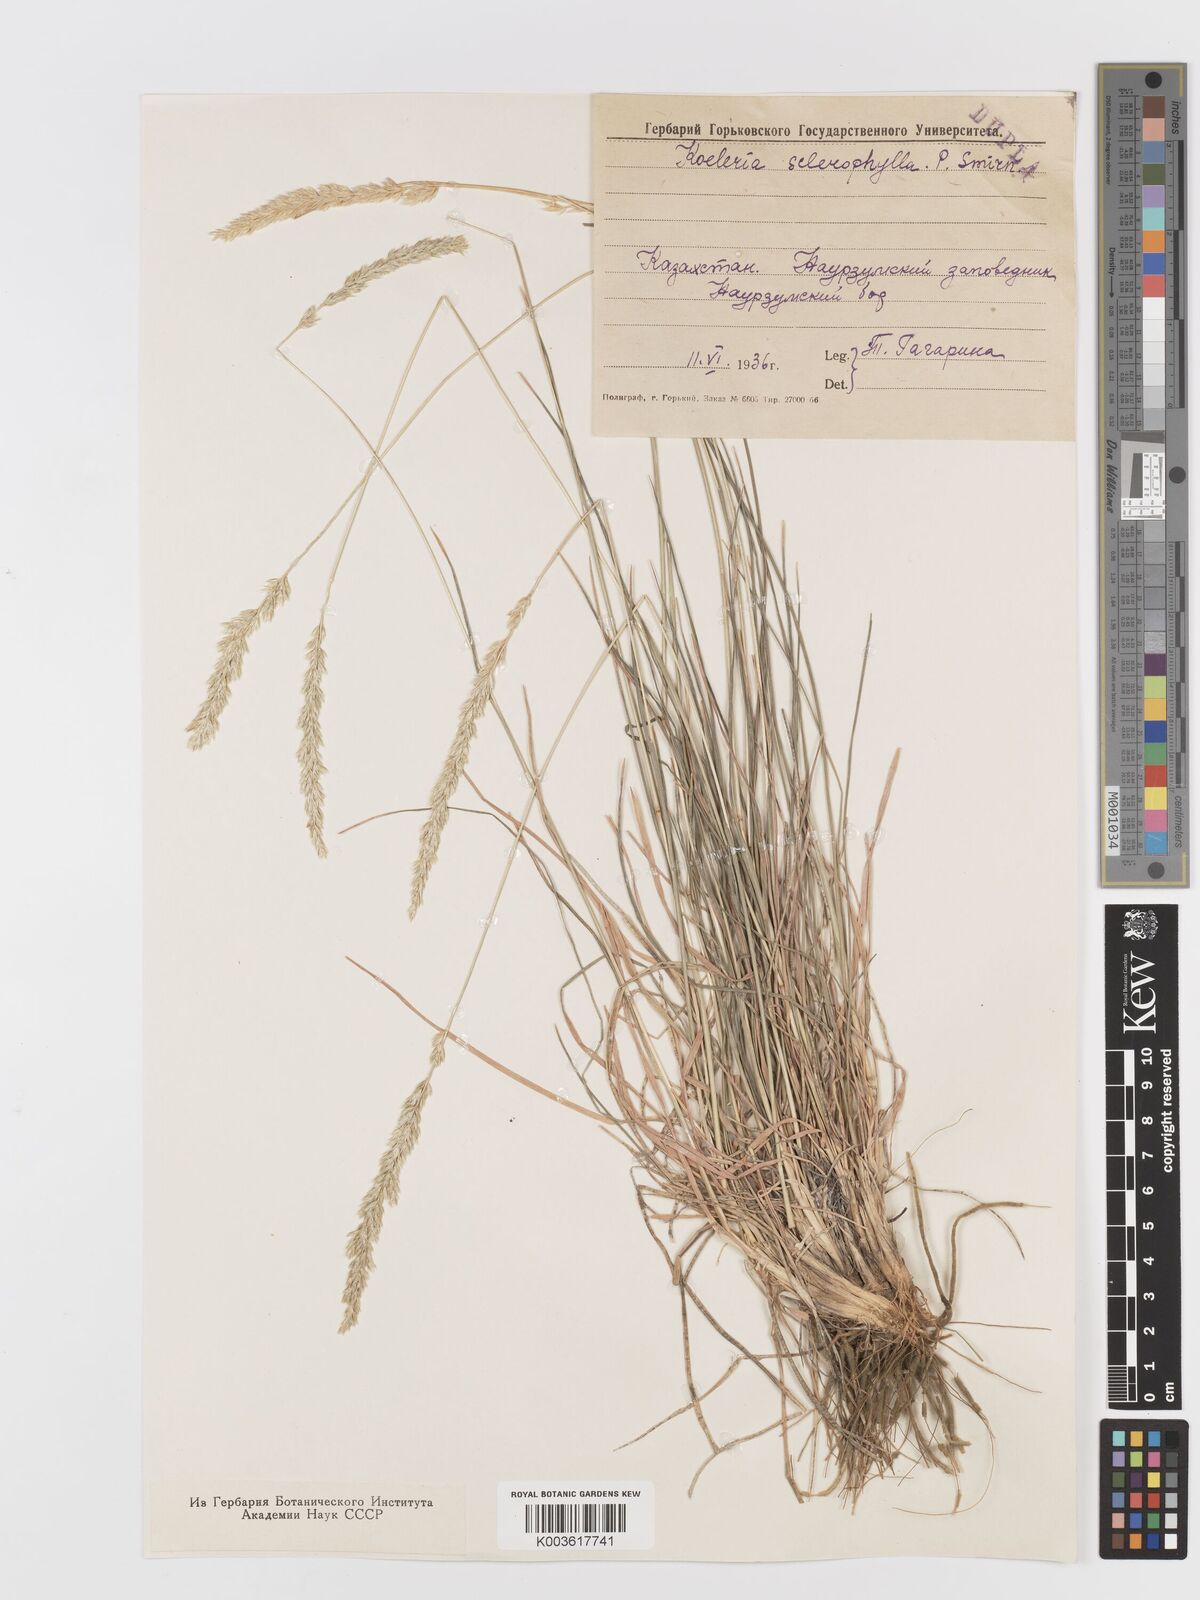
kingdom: Plantae
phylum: Tracheophyta
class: Liliopsida
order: Poales
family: Poaceae
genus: Koeleria
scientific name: Koeleria macrantha
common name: Crested hair-grass
